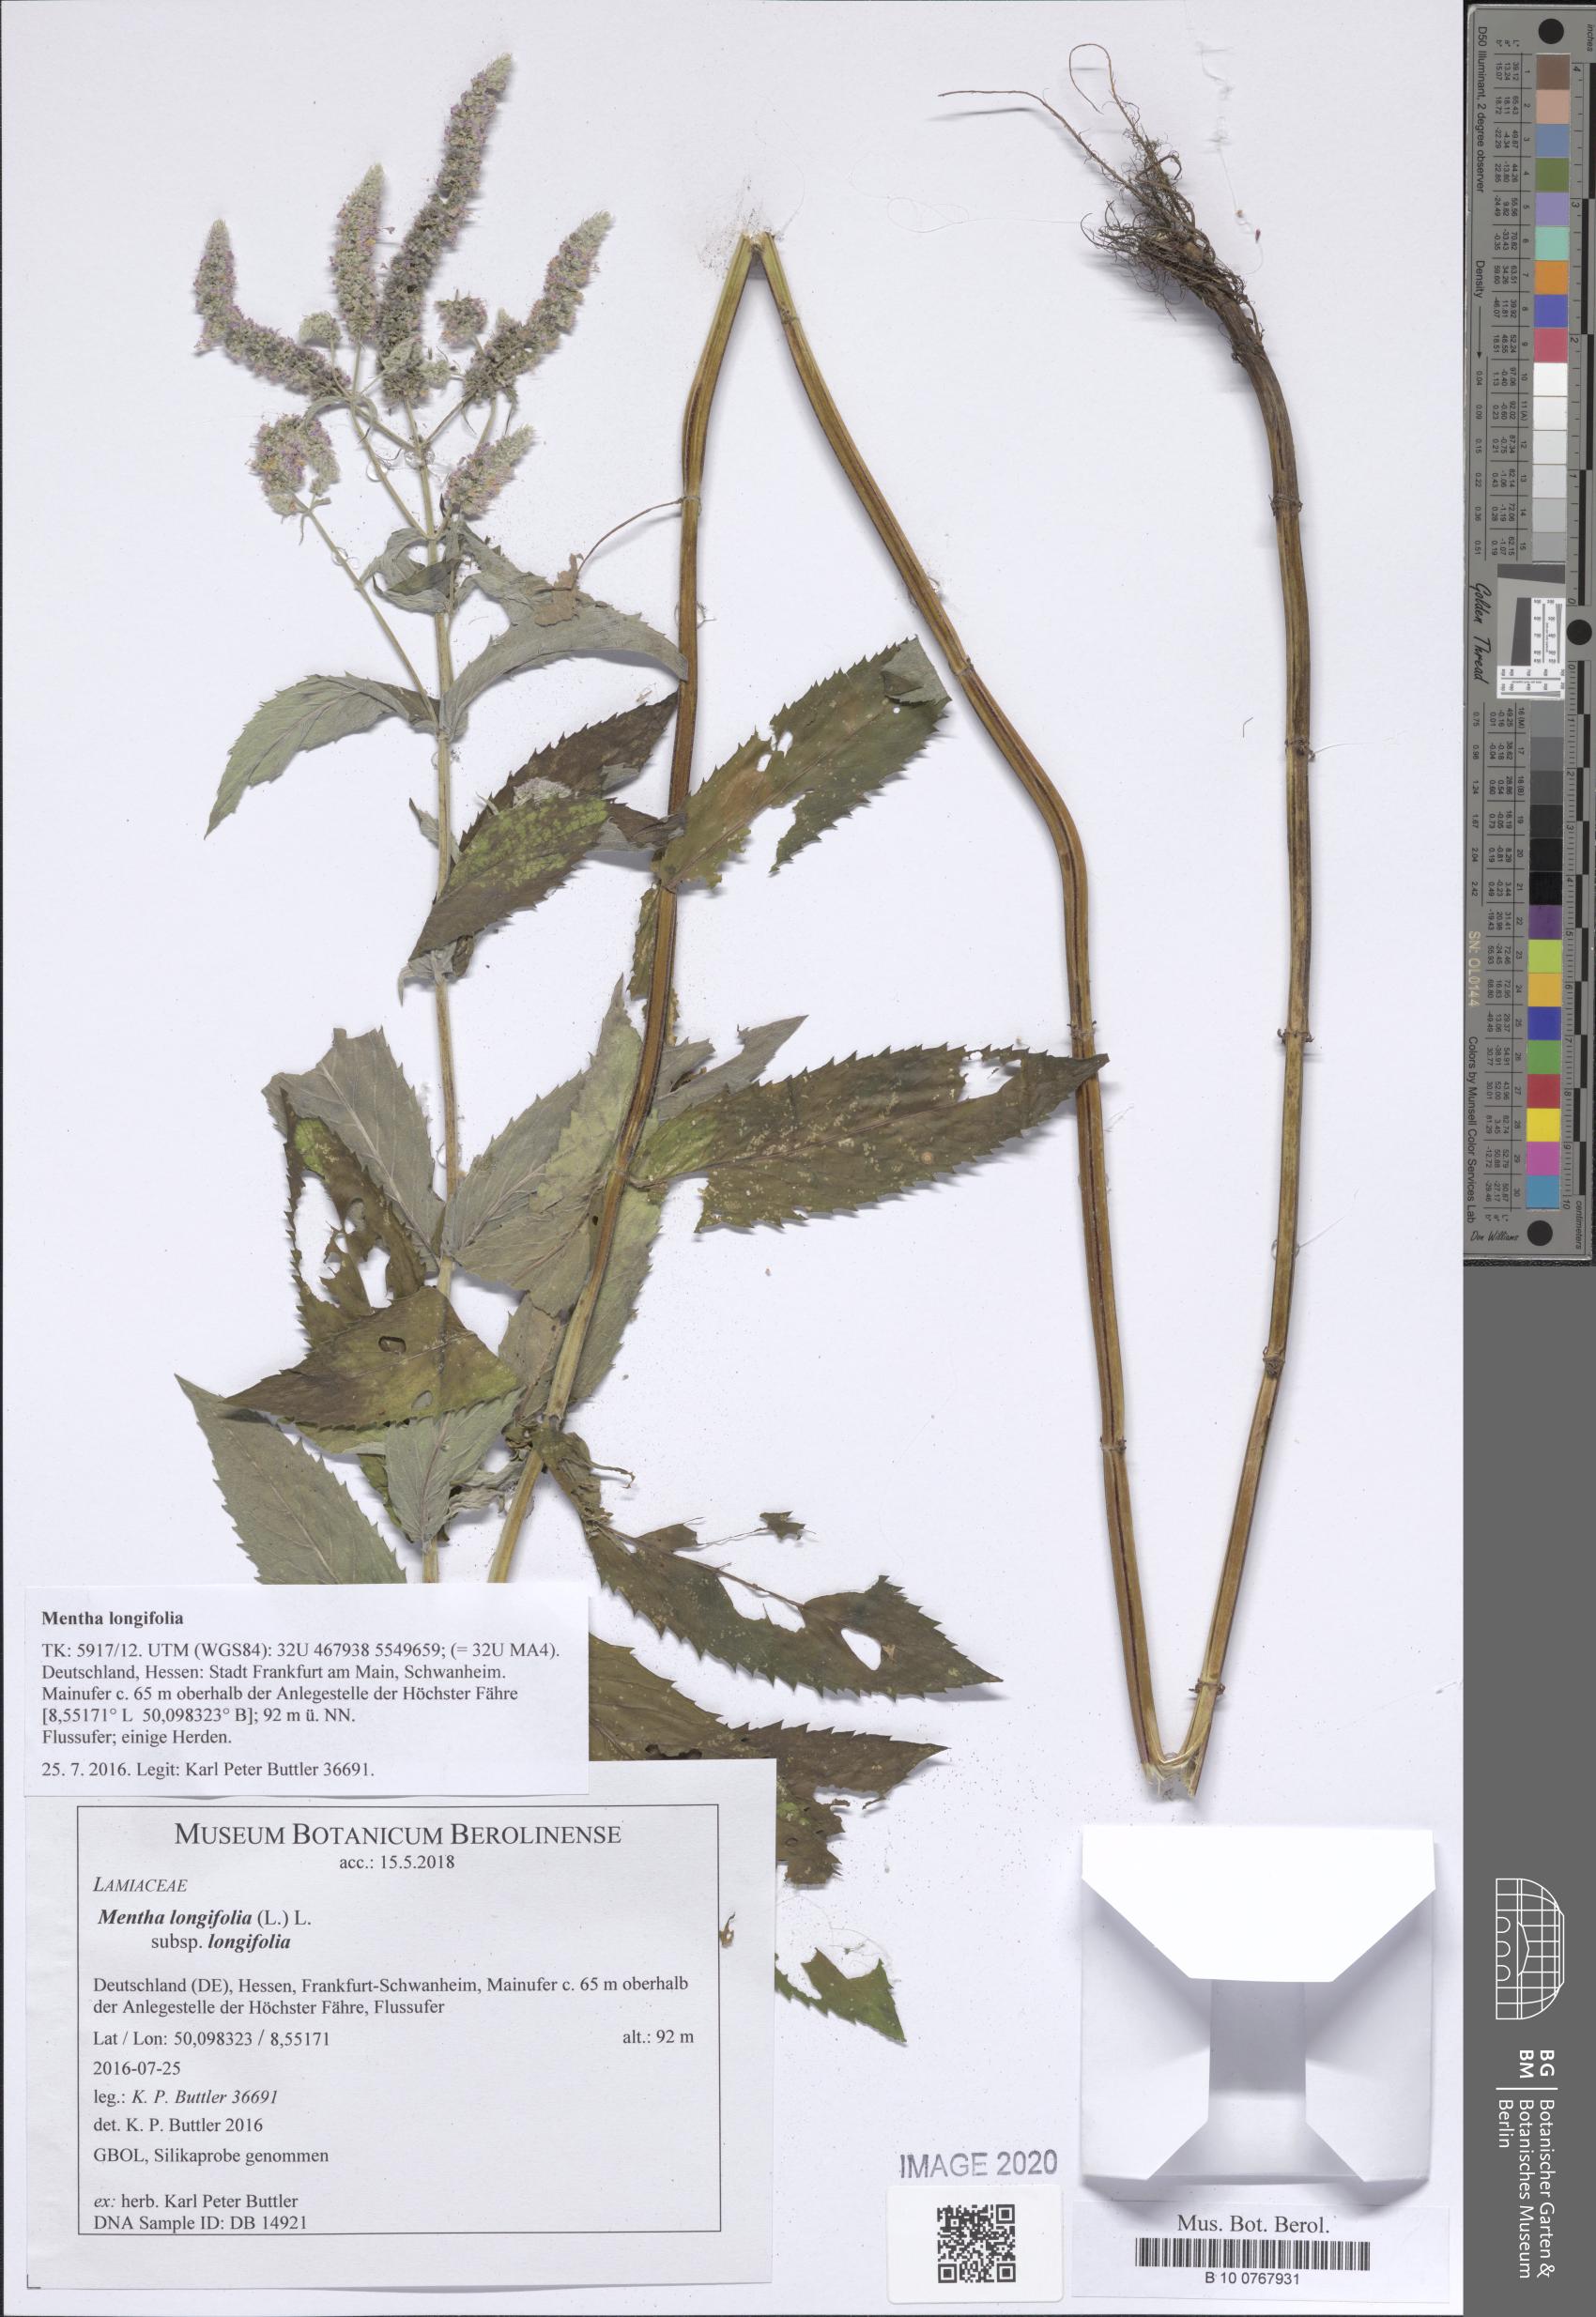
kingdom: Plantae
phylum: Tracheophyta
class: Magnoliopsida
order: Lamiales
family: Lamiaceae
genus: Mentha
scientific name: Mentha longifolia
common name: Horse mint
